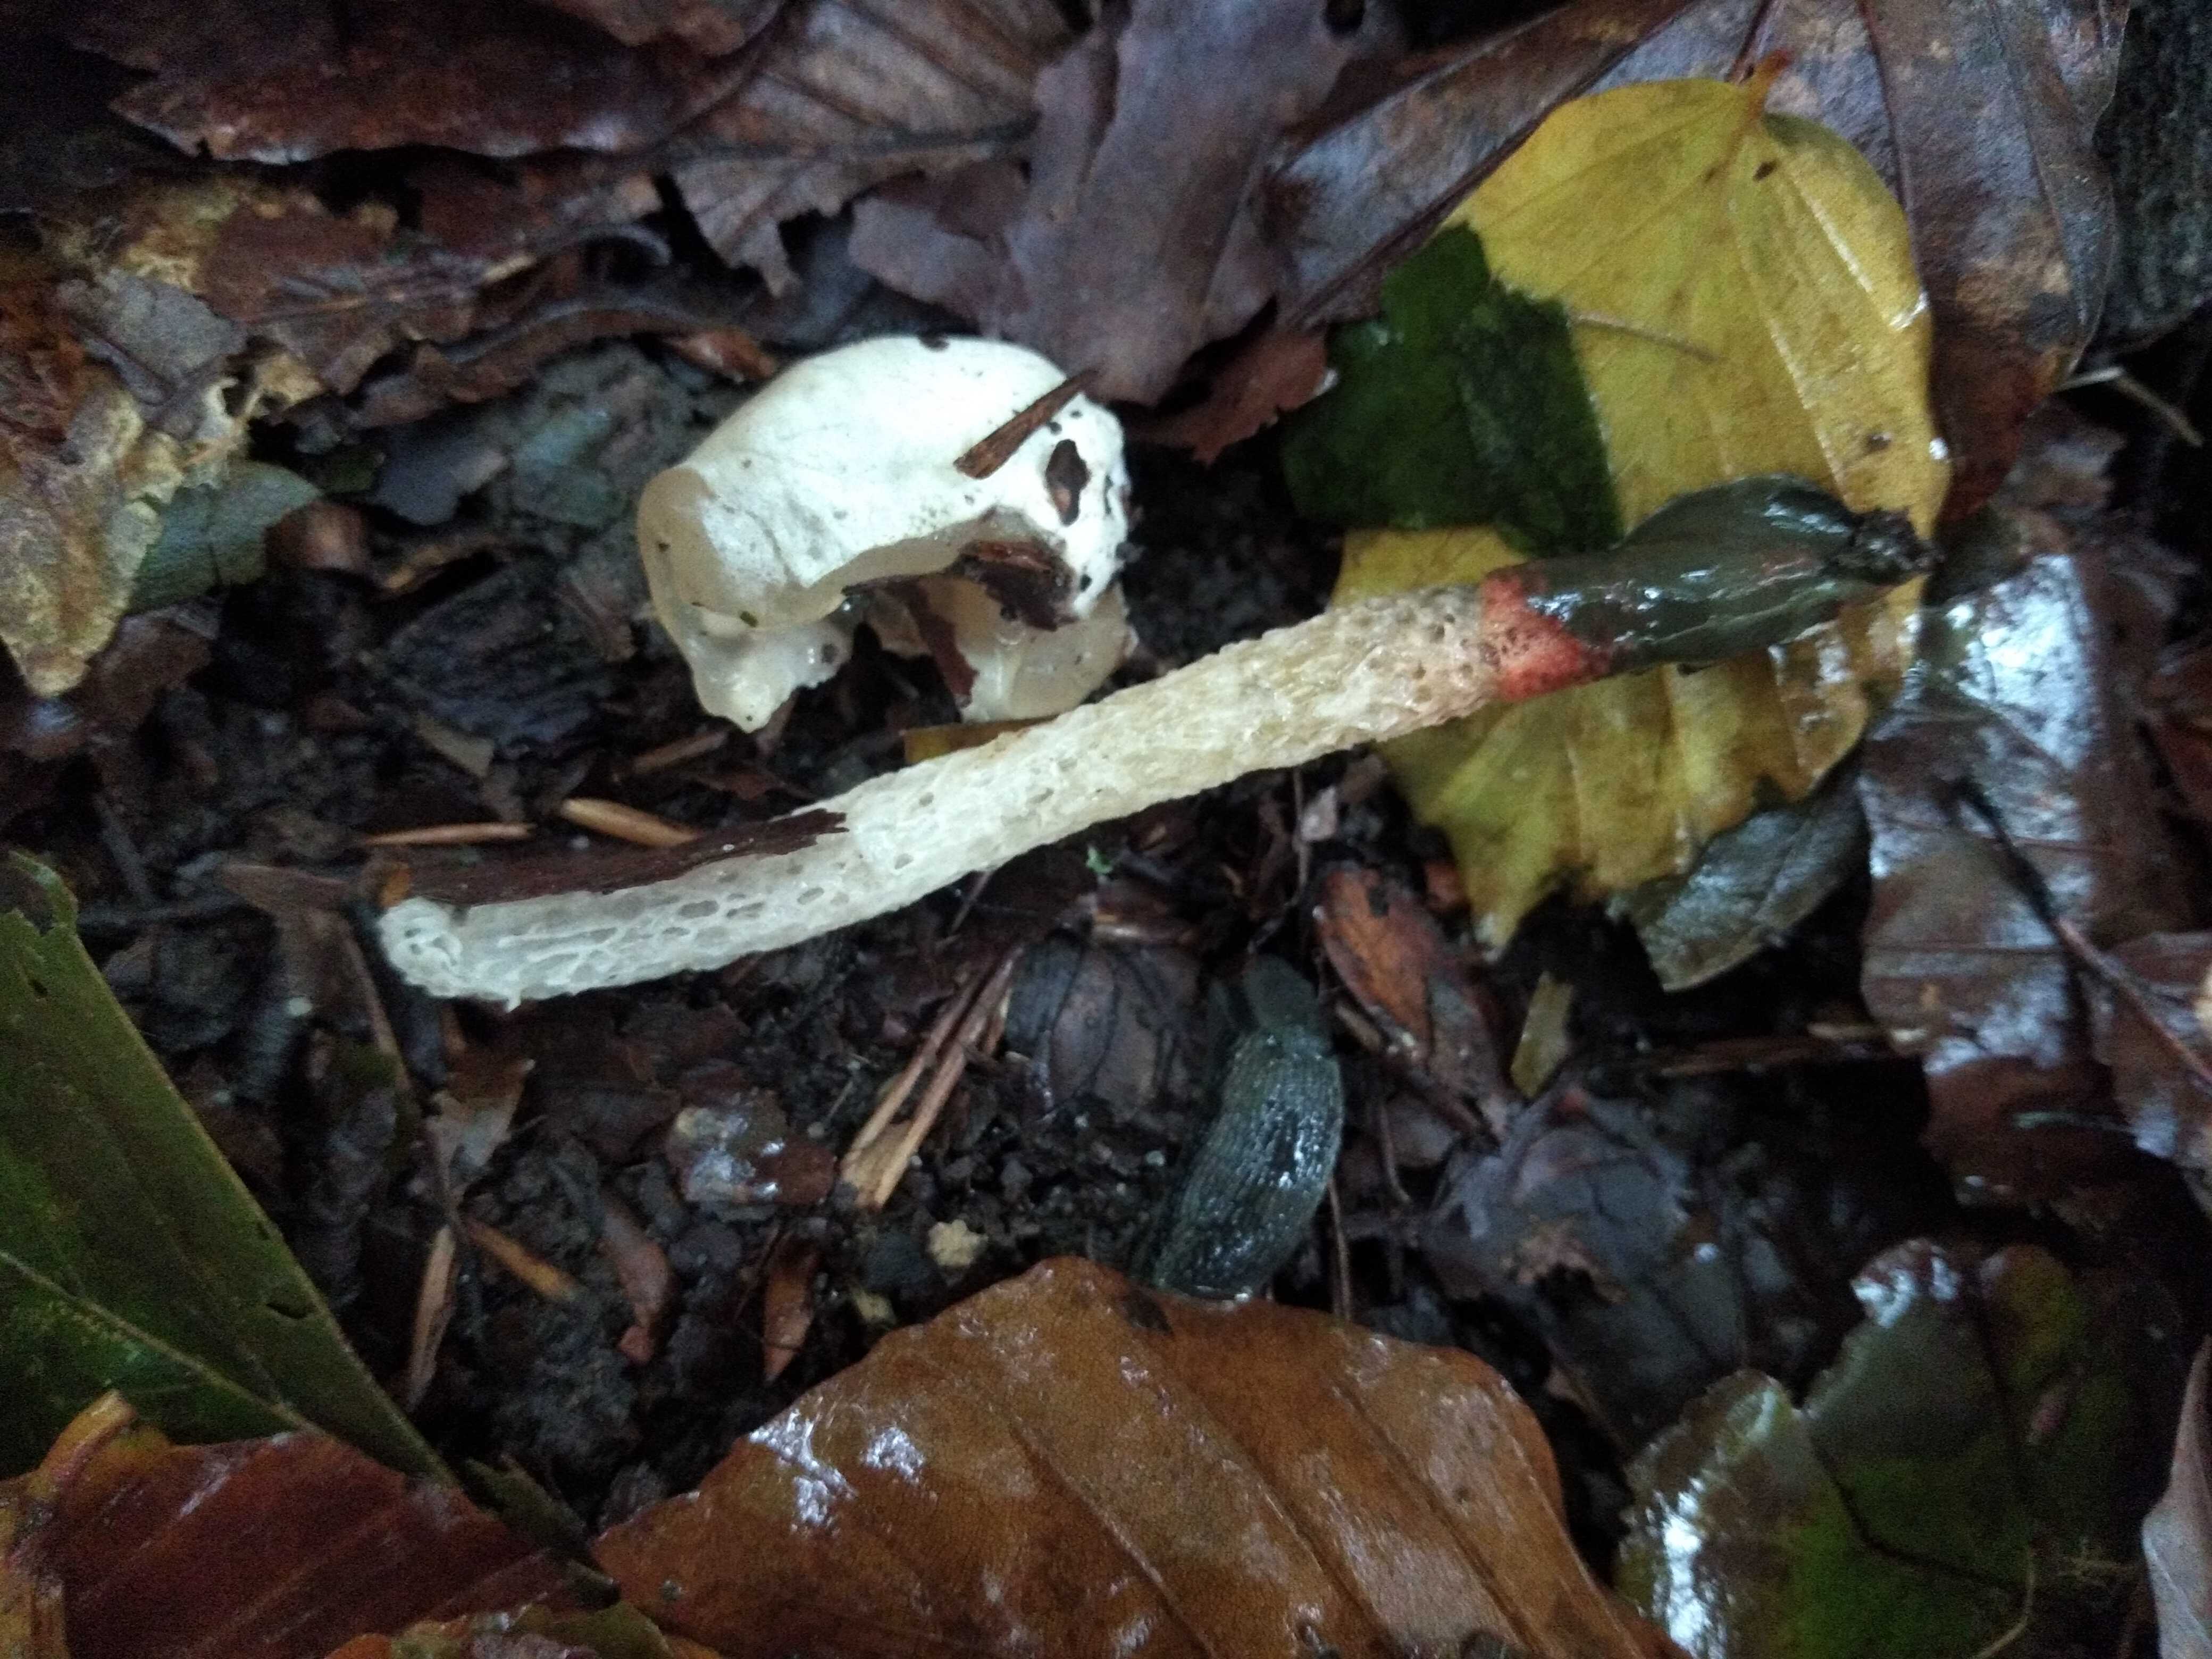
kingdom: Fungi
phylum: Basidiomycota
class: Agaricomycetes
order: Phallales
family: Phallaceae
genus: Mutinus
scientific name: Mutinus caninus
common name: hunde-stinksvamp
